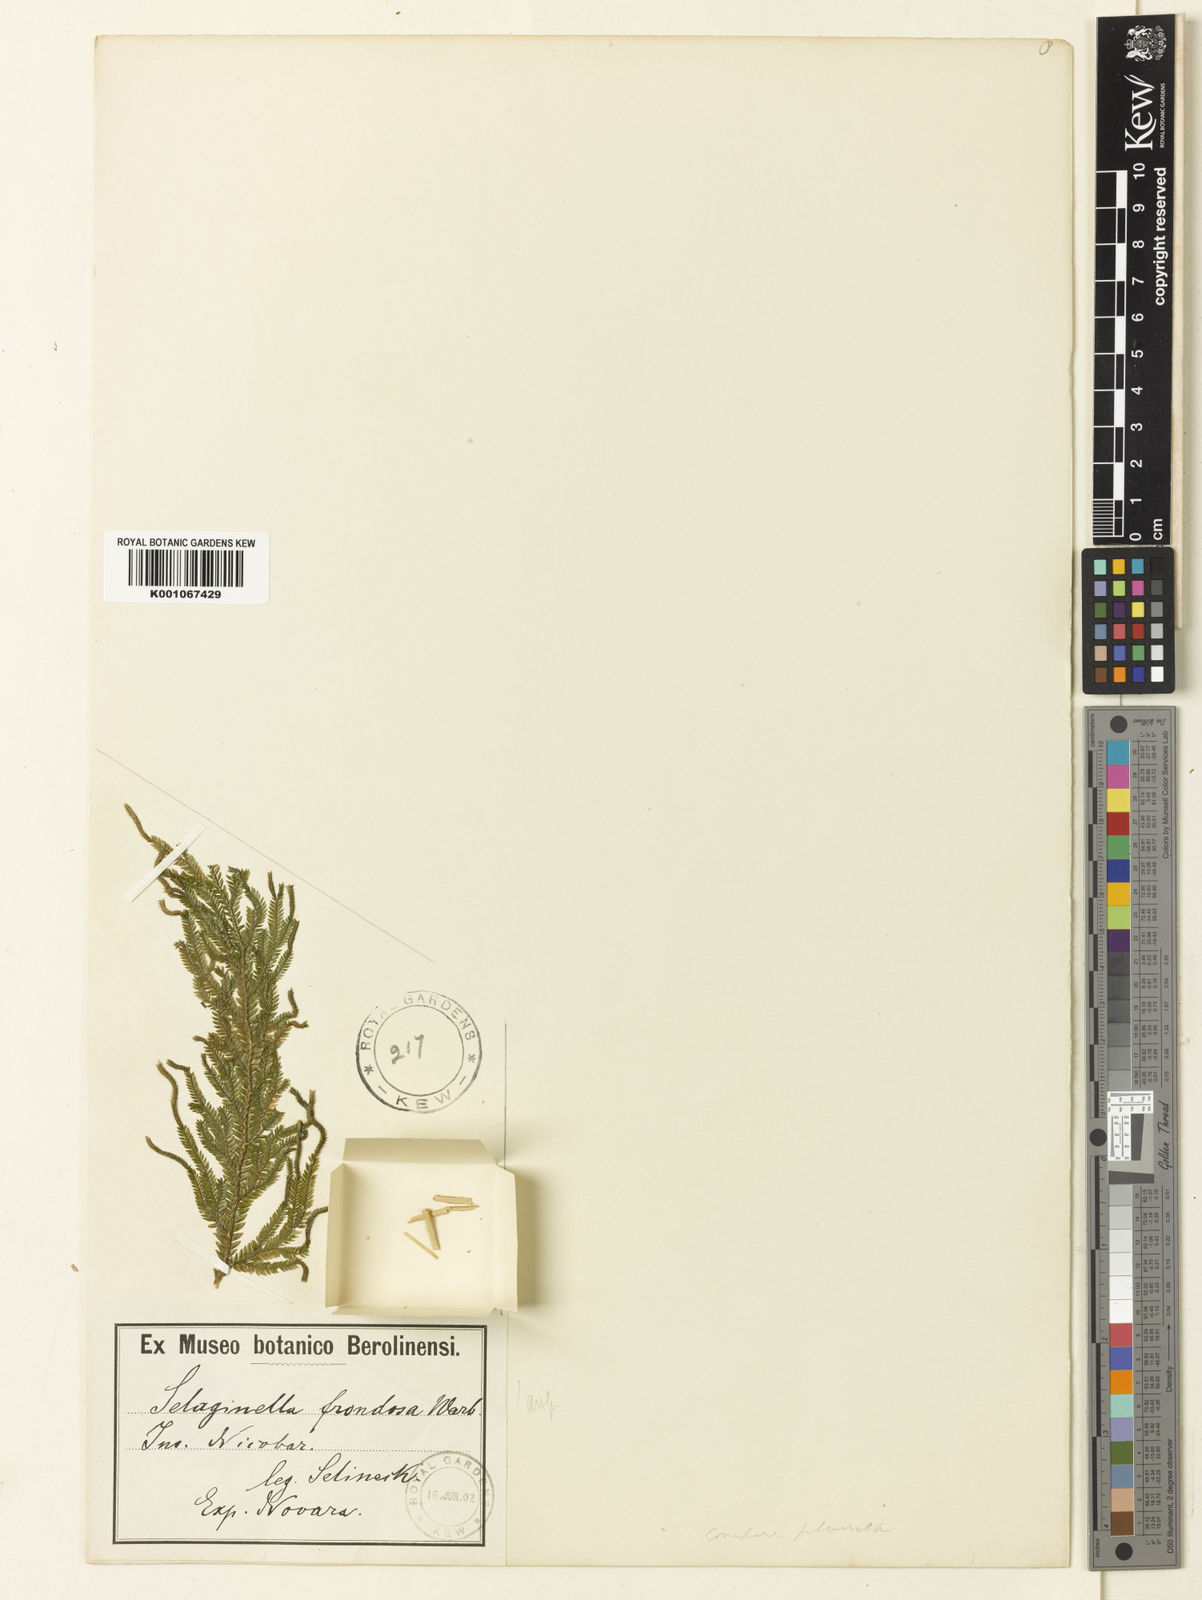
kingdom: Plantae
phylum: Tracheophyta
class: Lycopodiopsida
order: Selaginellales
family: Selaginellaceae
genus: Selaginella
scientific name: Selaginella frondosa
